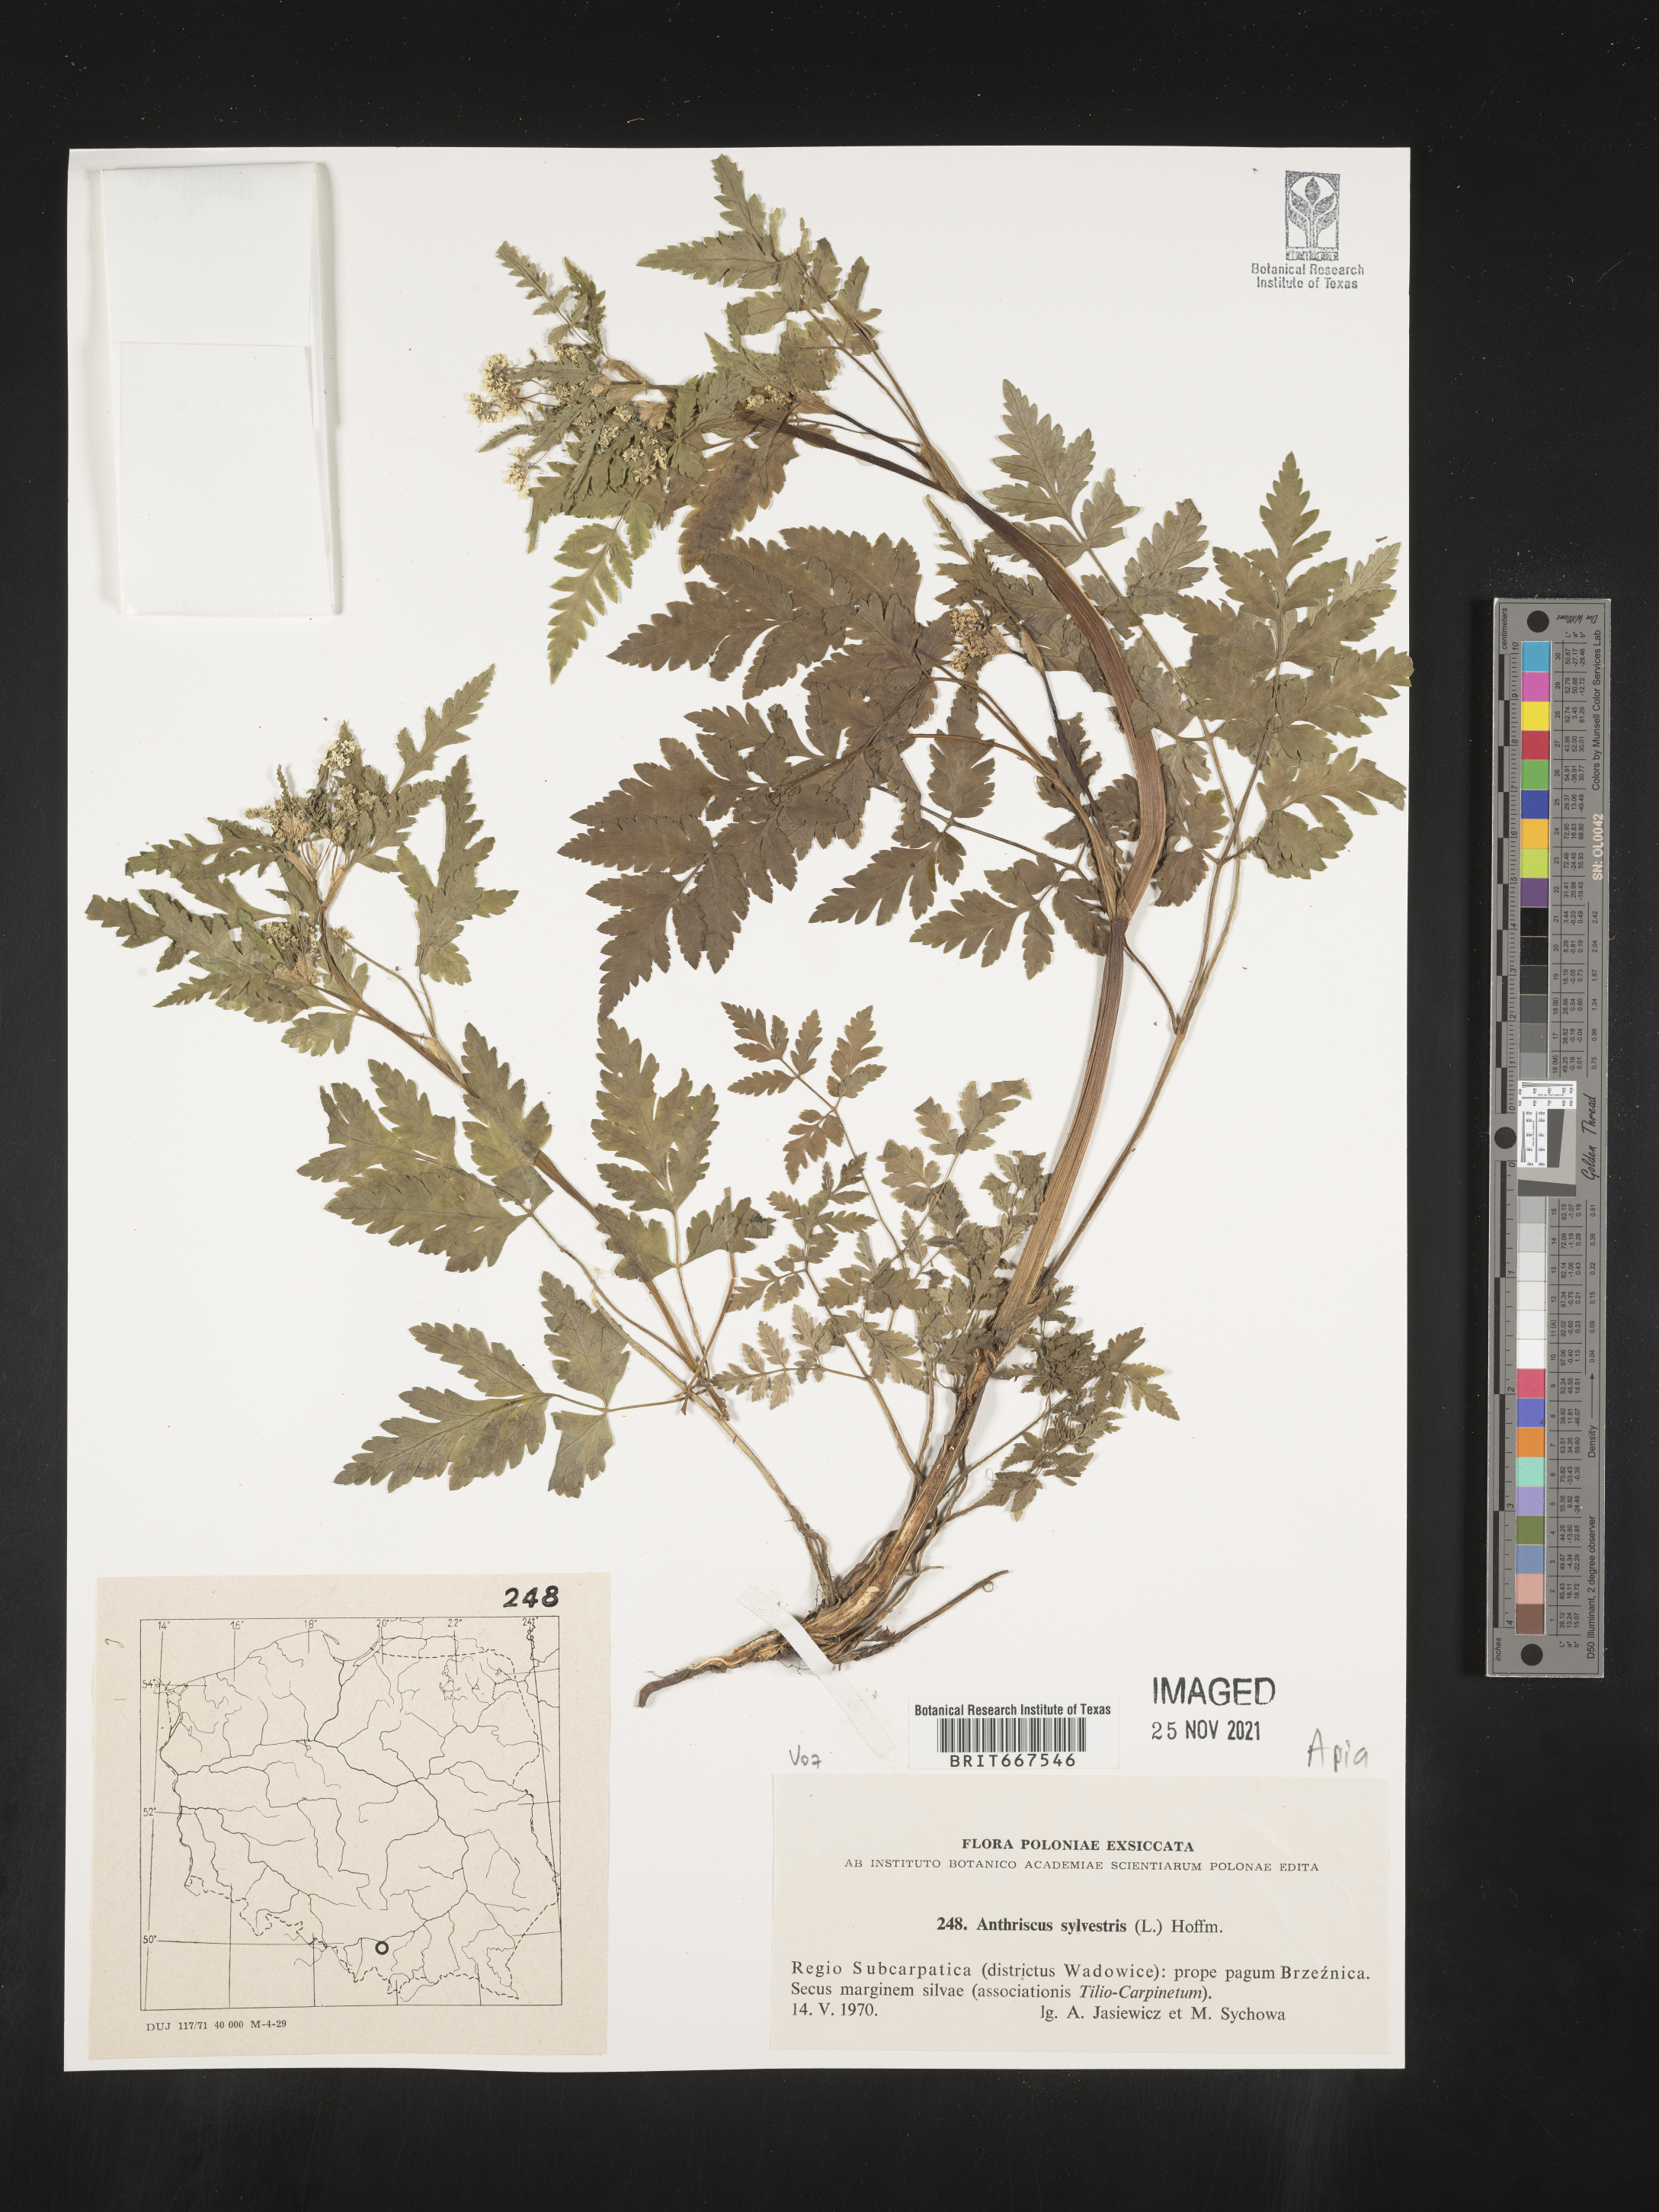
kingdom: Plantae
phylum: Tracheophyta
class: Magnoliopsida
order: Apiales
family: Apiaceae
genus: Anthriscus
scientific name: Anthriscus
